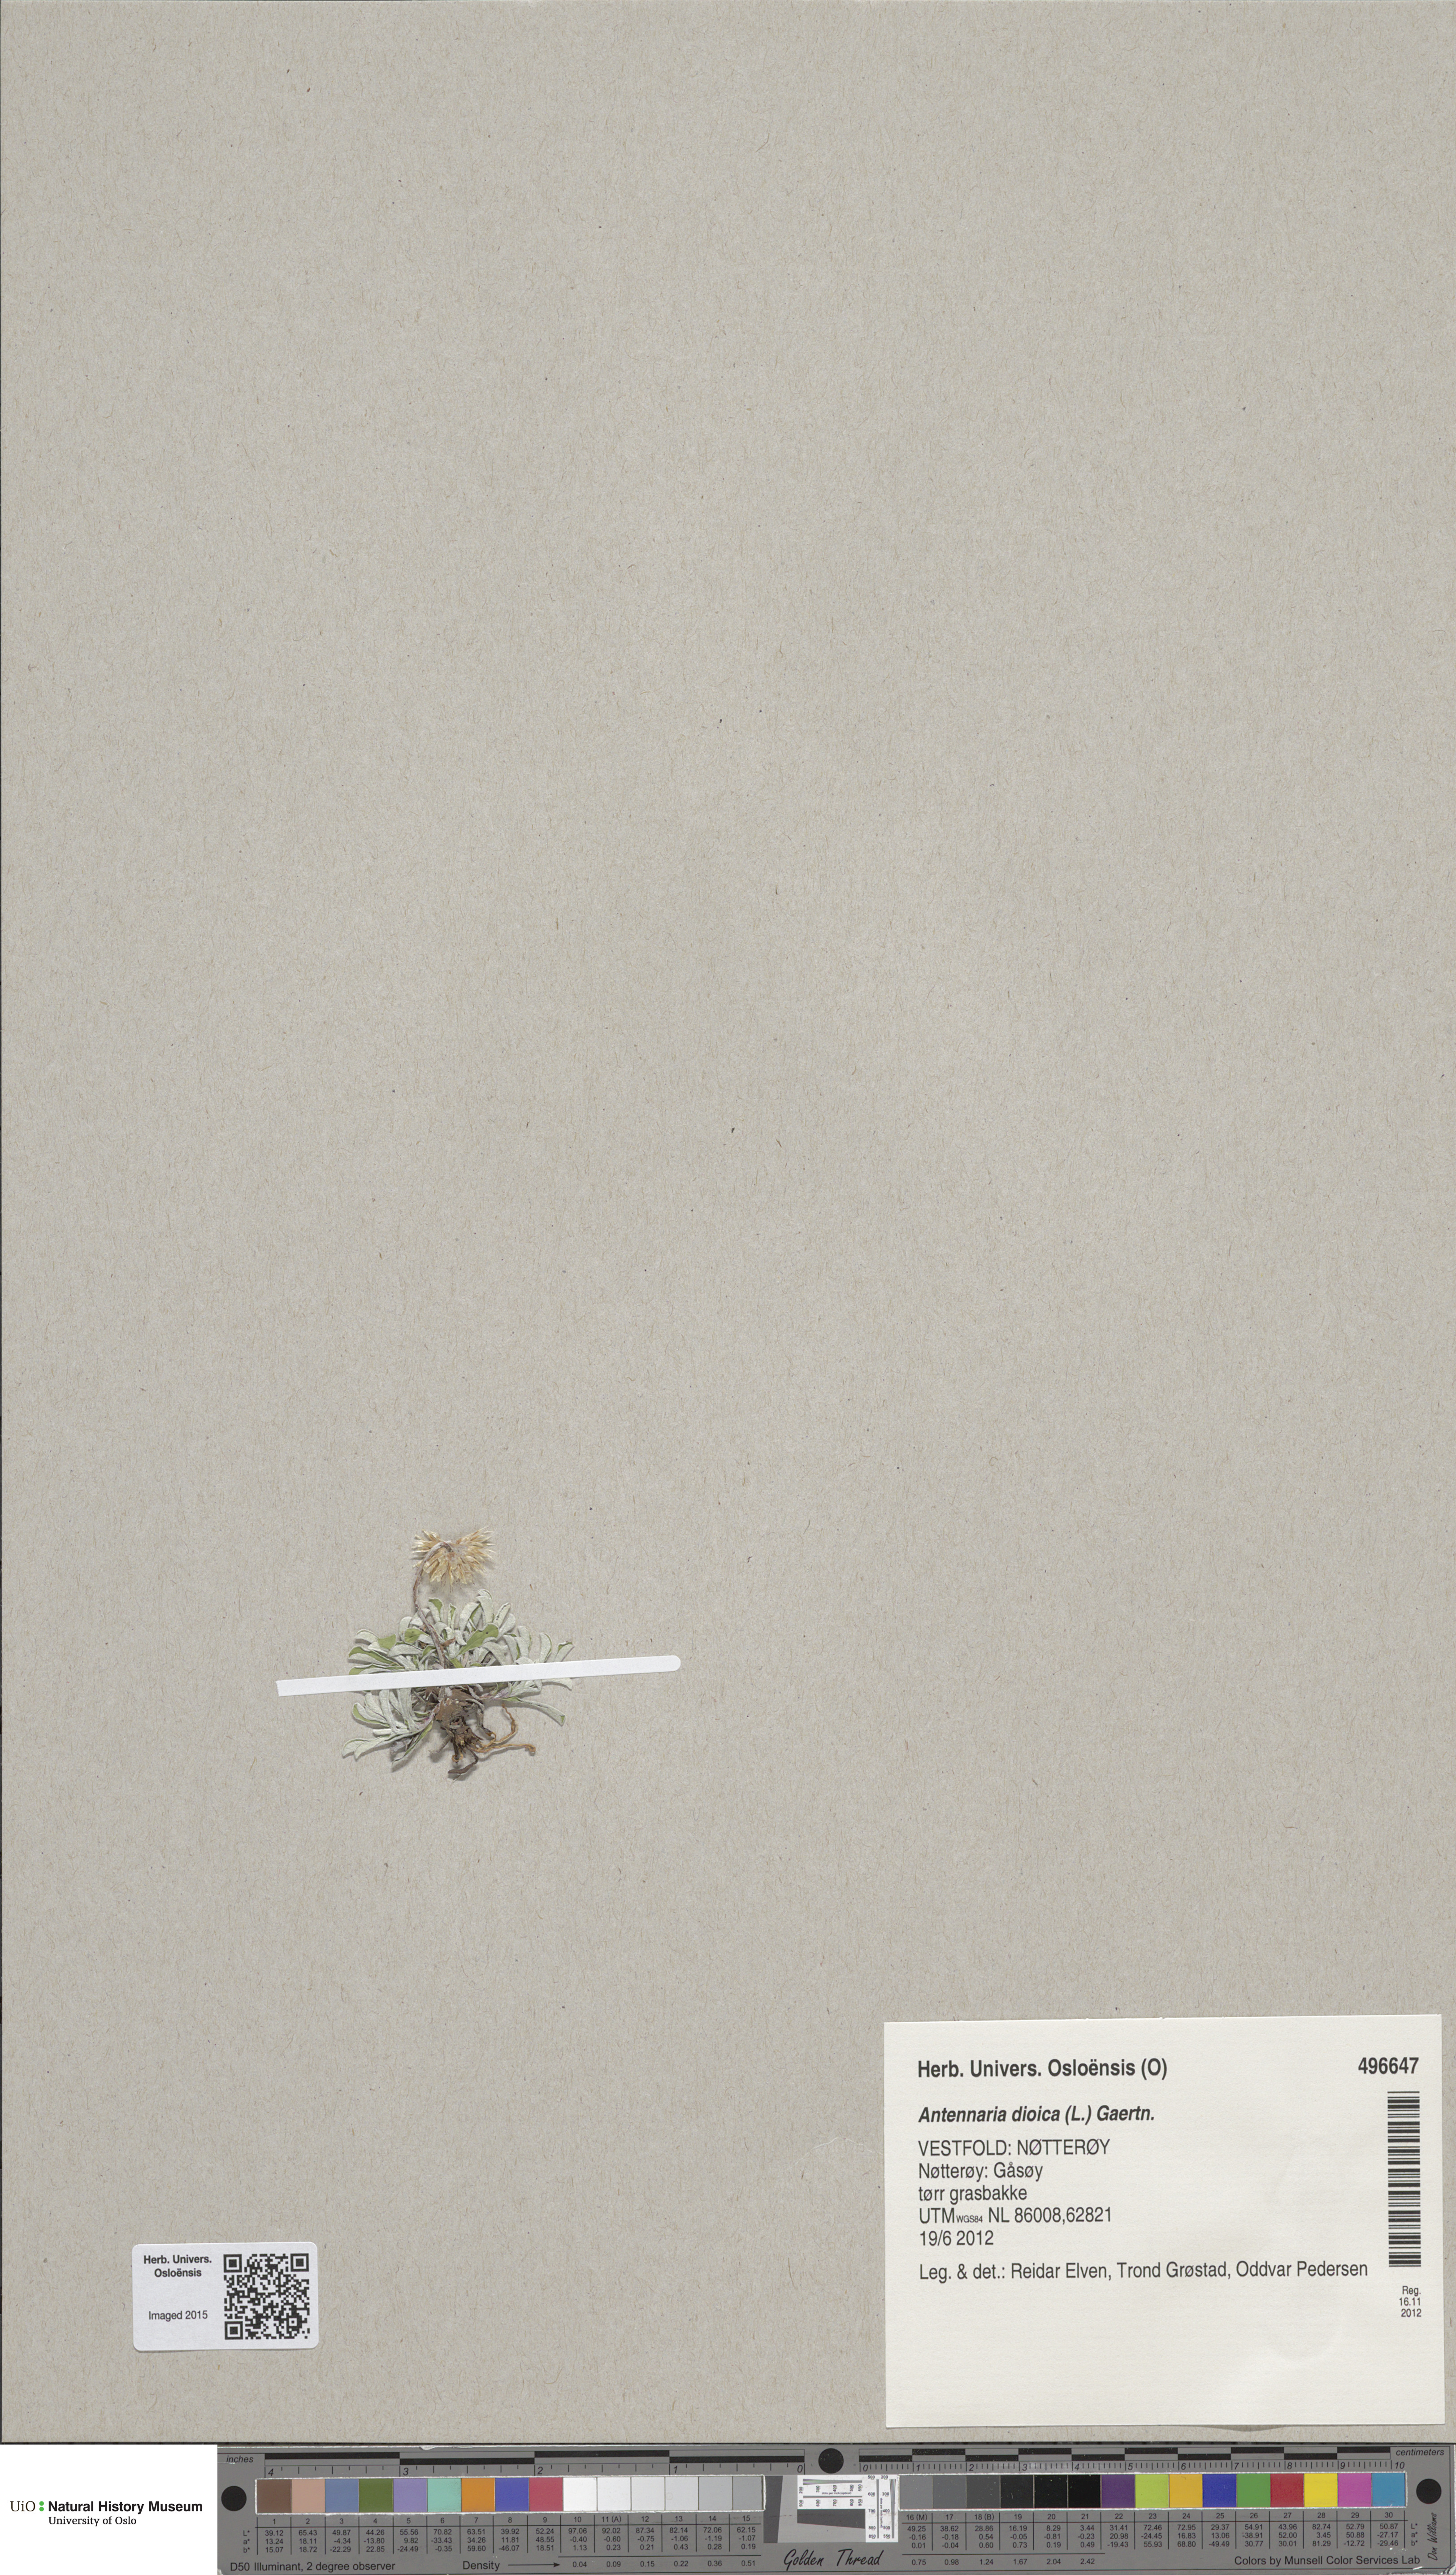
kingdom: Plantae
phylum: Tracheophyta
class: Magnoliopsida
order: Asterales
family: Asteraceae
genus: Antennaria
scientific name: Antennaria dioica
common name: Mountain everlasting
